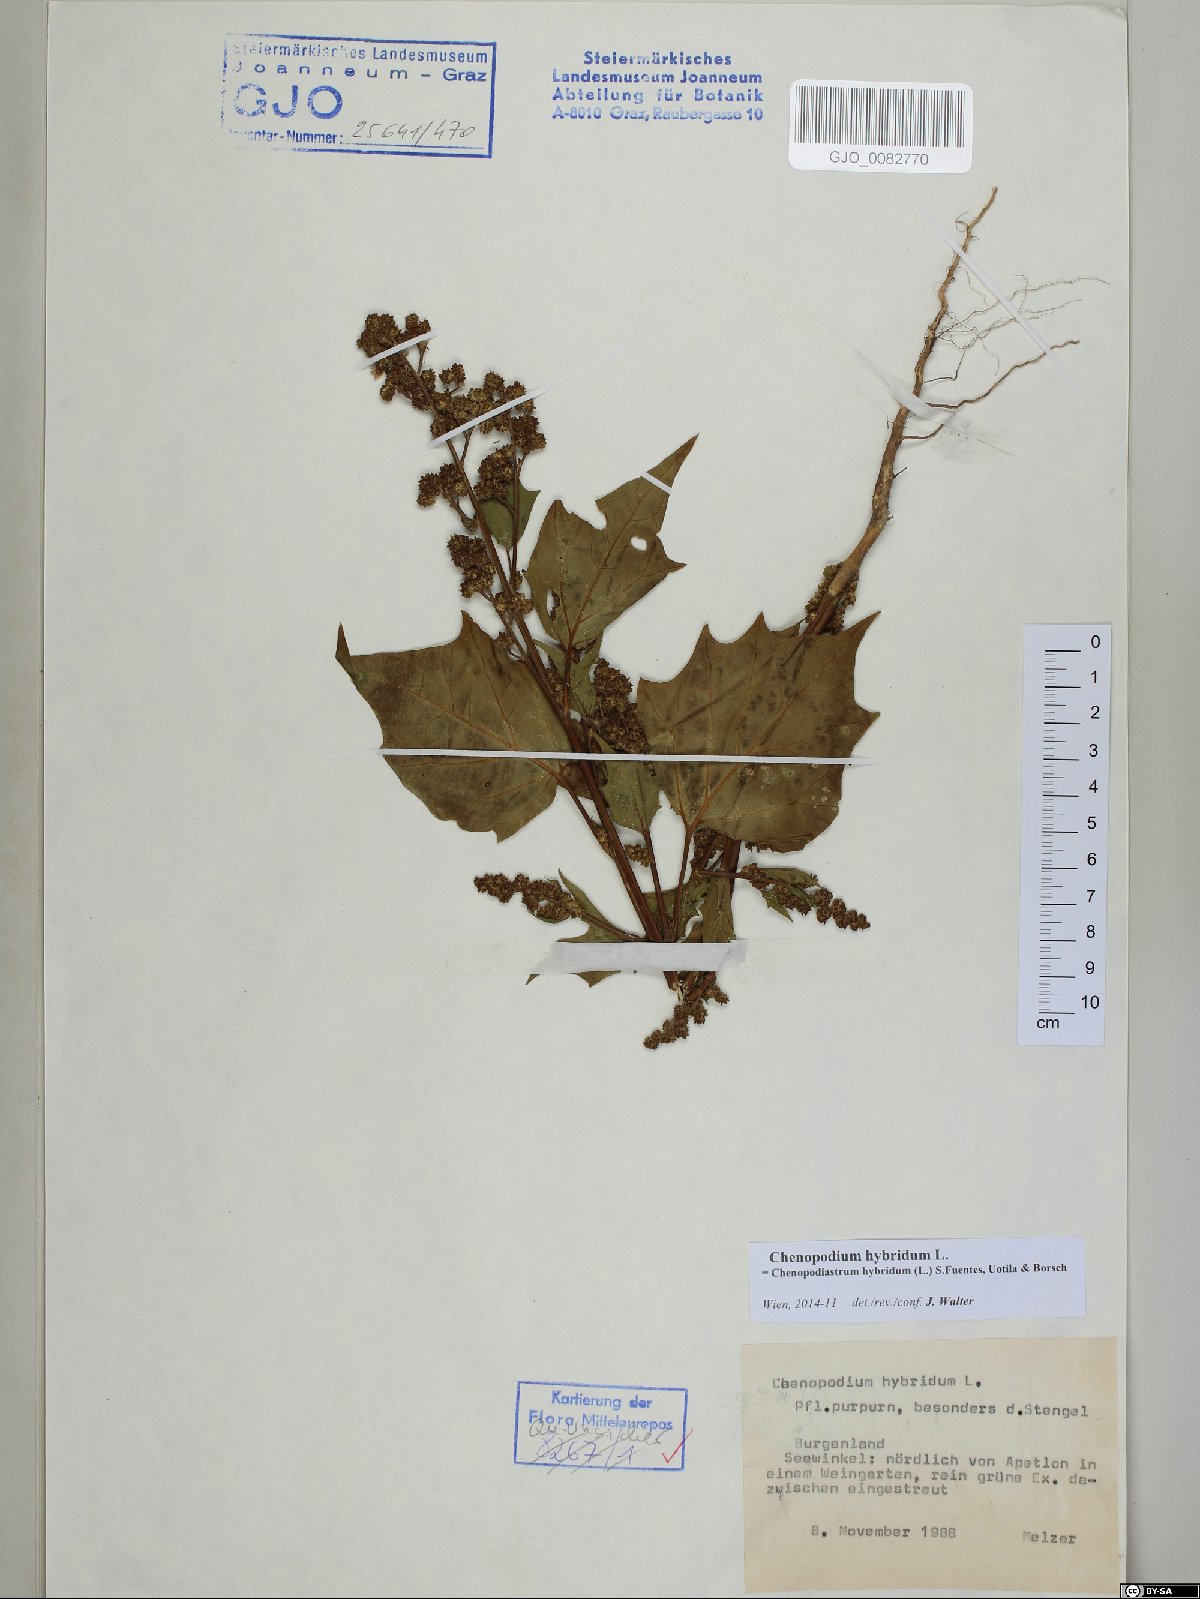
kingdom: Plantae
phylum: Tracheophyta
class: Magnoliopsida
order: Caryophyllales
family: Amaranthaceae
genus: Chenopodiastrum
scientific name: Chenopodiastrum hybridum
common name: Mapleleaf goosefoot
